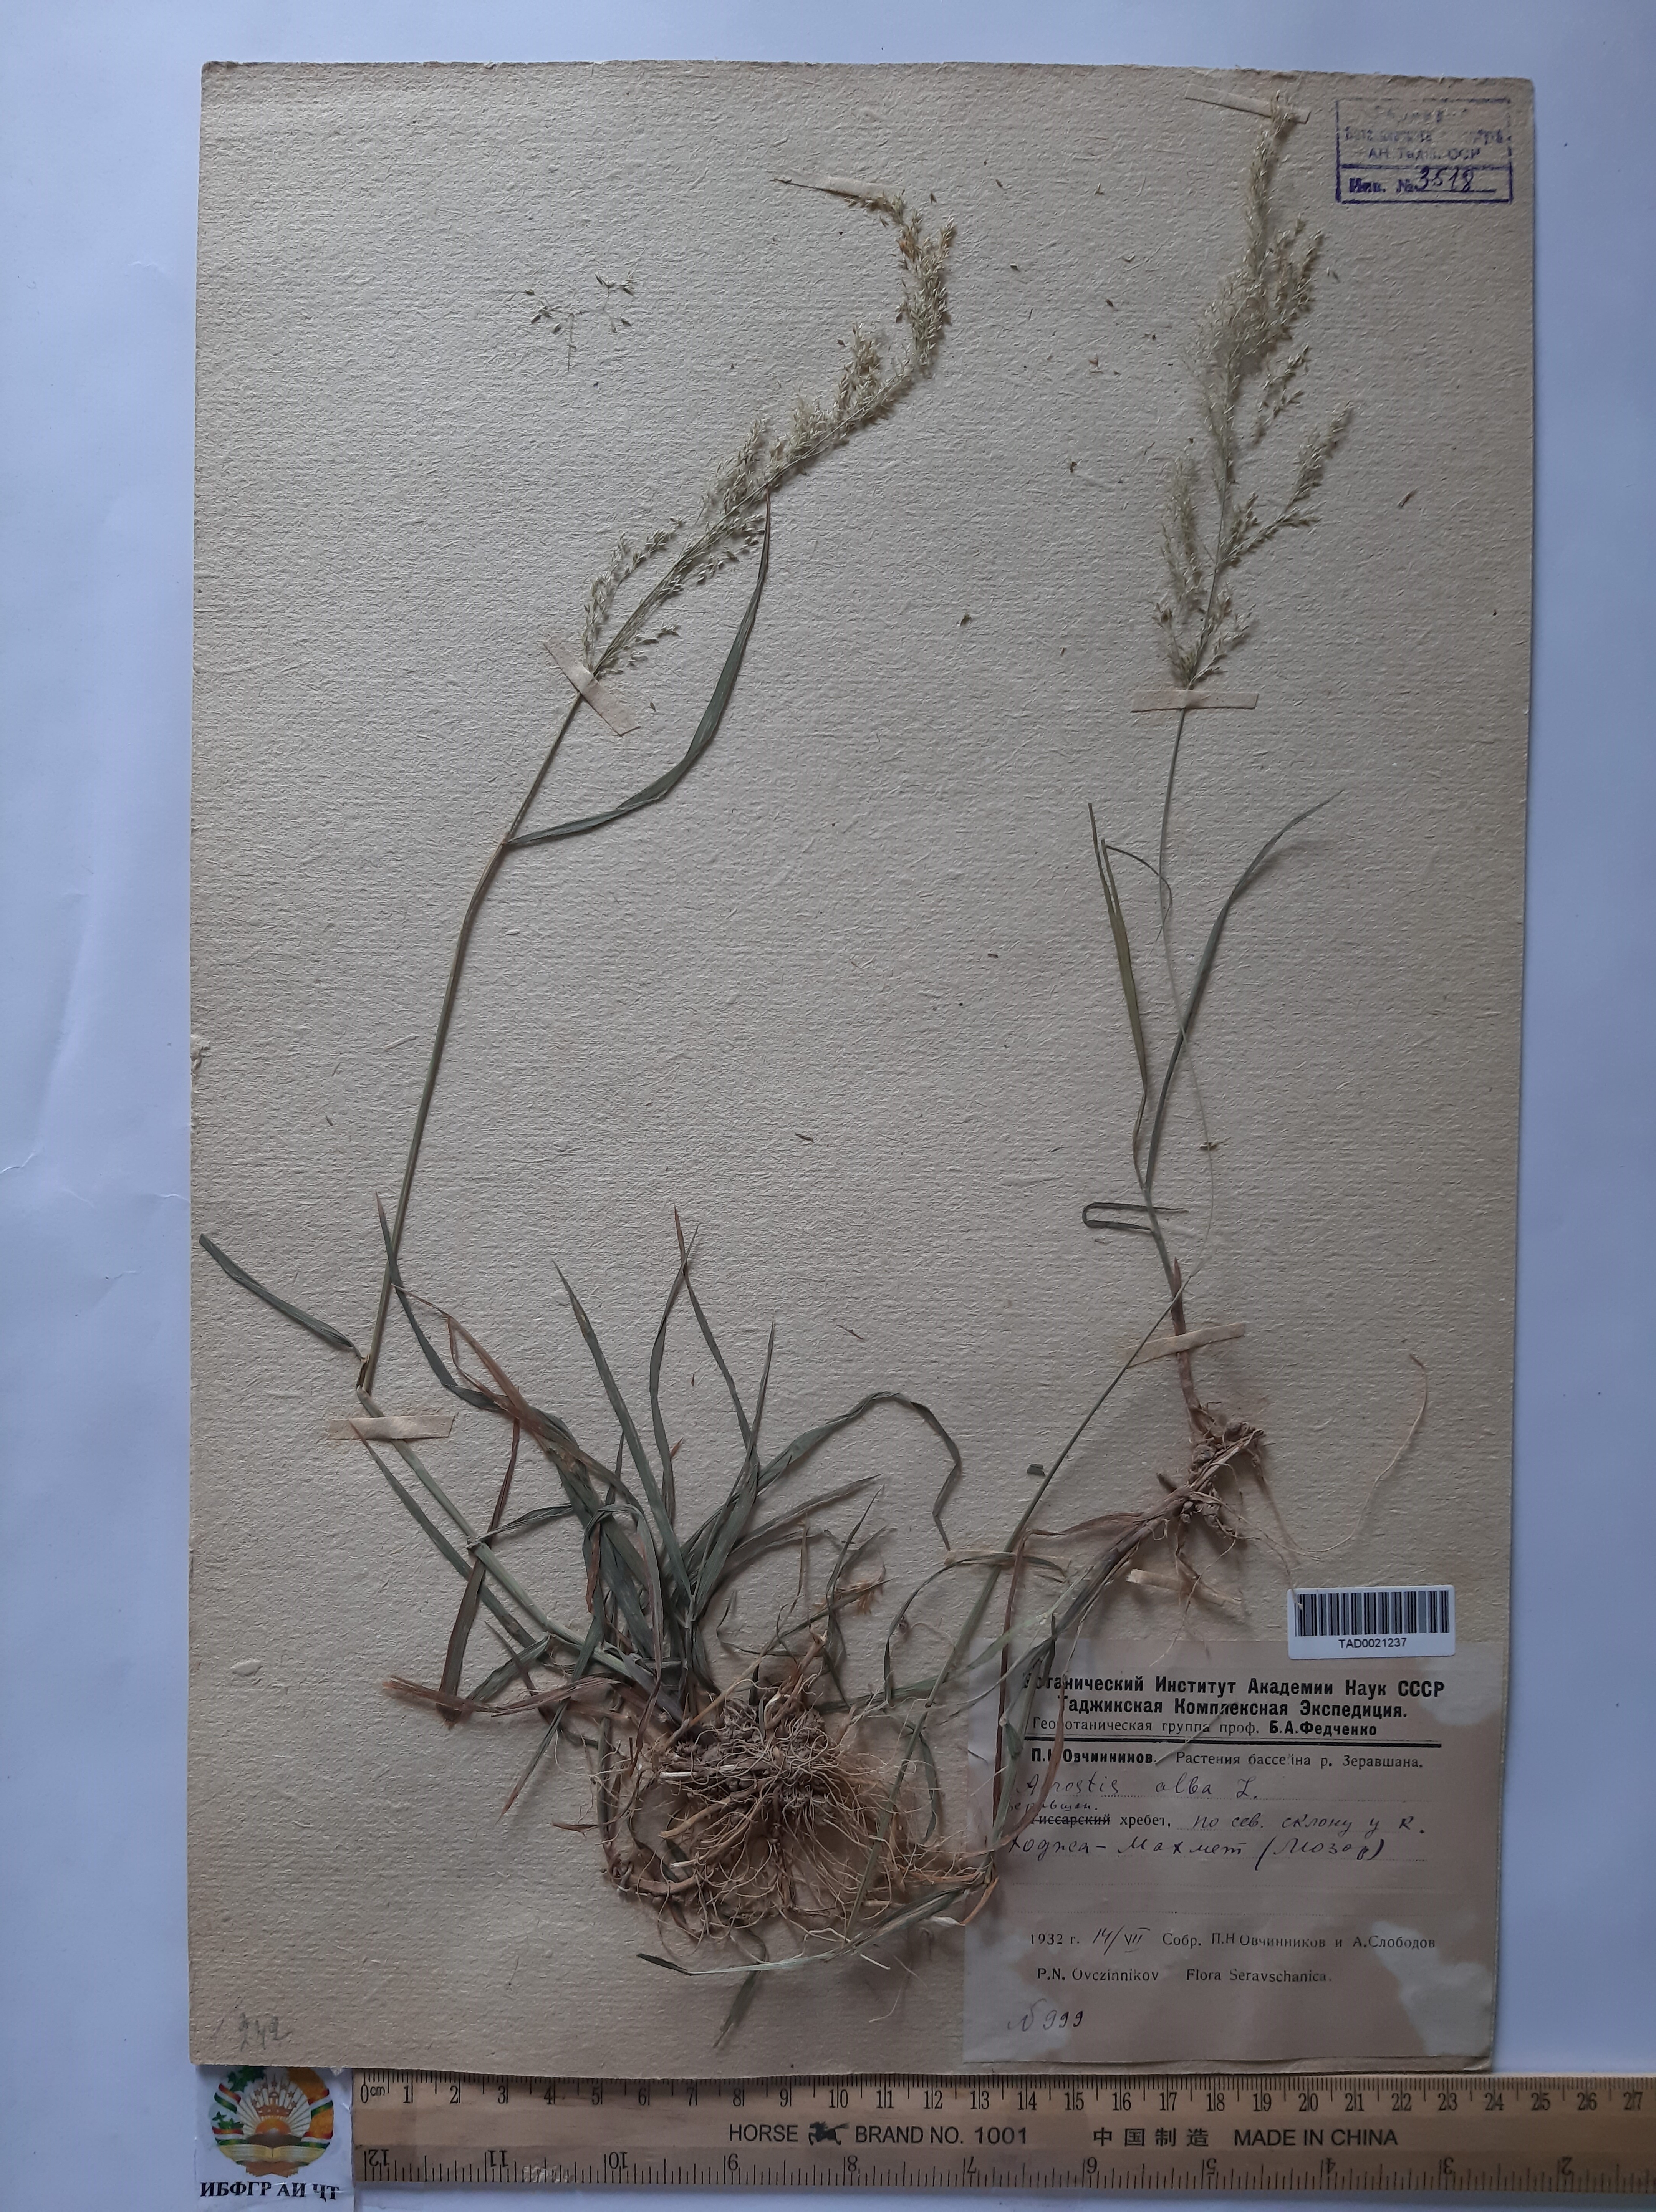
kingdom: Plantae
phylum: Tracheophyta
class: Liliopsida
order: Poales
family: Poaceae
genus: Poa
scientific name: Poa nemoralis
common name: Wood bluegrass
